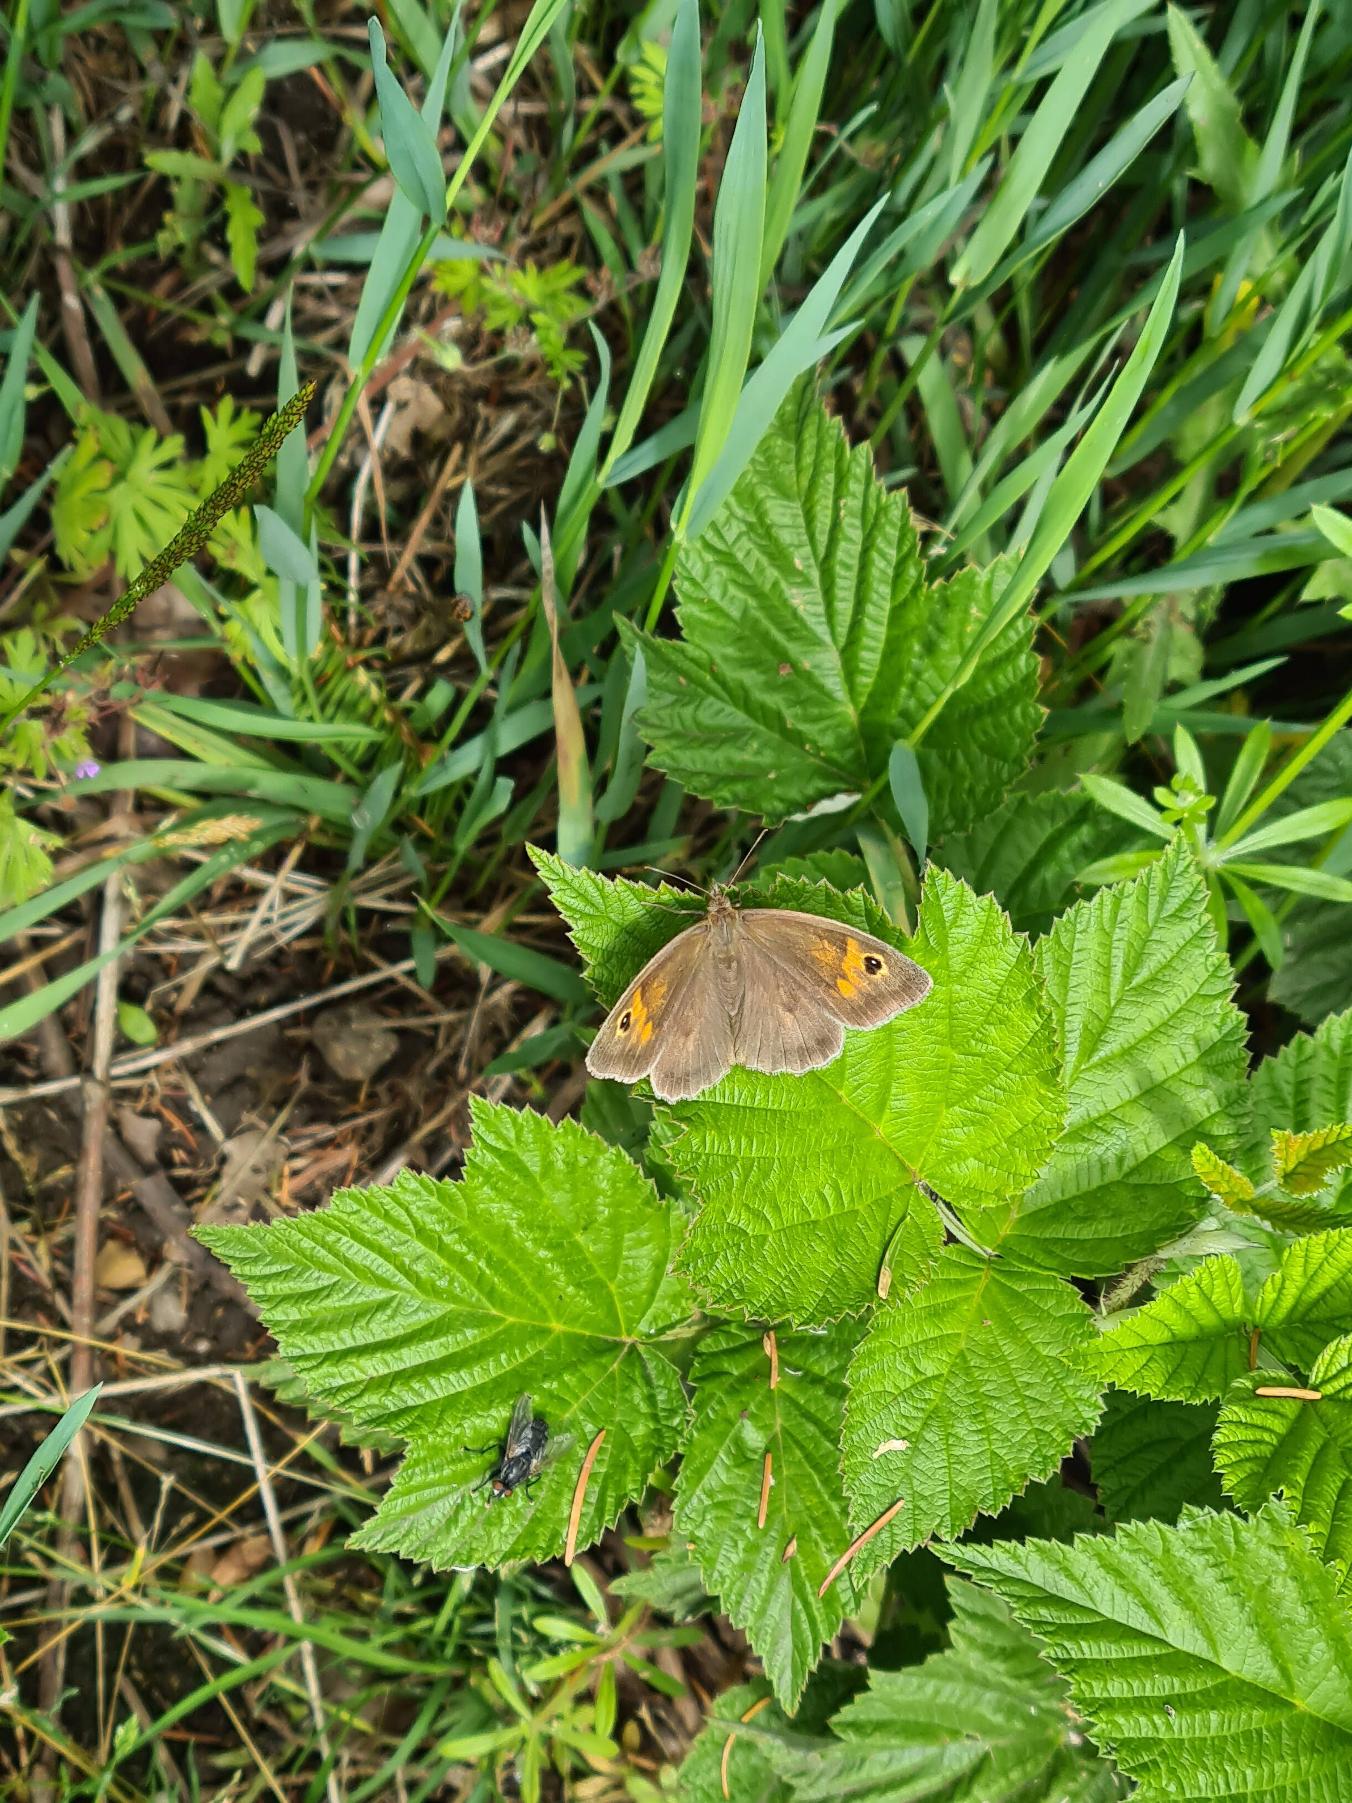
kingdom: Animalia
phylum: Arthropoda
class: Insecta
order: Lepidoptera
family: Nymphalidae
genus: Maniola
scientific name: Maniola jurtina
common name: Græsrandøje
